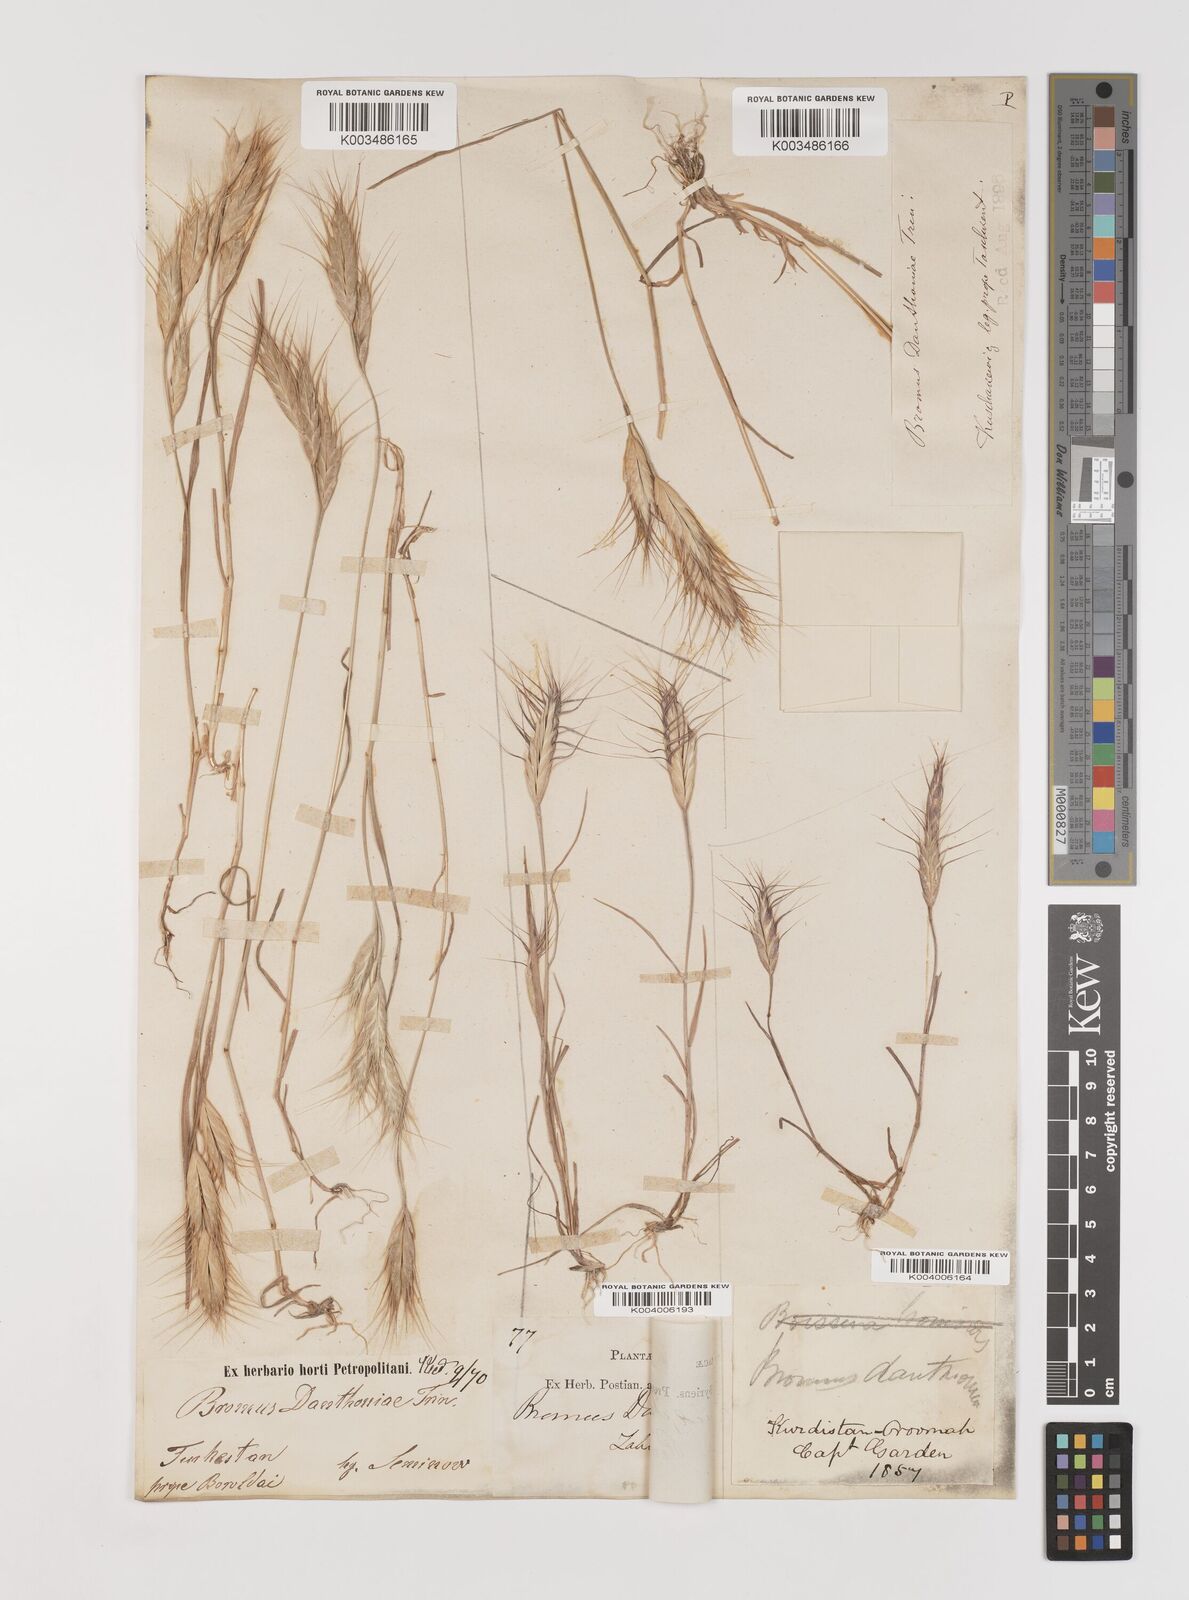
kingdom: Plantae
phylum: Tracheophyta
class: Liliopsida
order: Poales
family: Poaceae
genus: Bromus
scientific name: Bromus danthoniae
